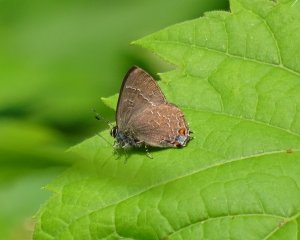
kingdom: Animalia
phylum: Arthropoda
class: Insecta
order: Lepidoptera
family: Lycaenidae
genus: Satyrium
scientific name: Satyrium liparops
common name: Striped Hairstreak
